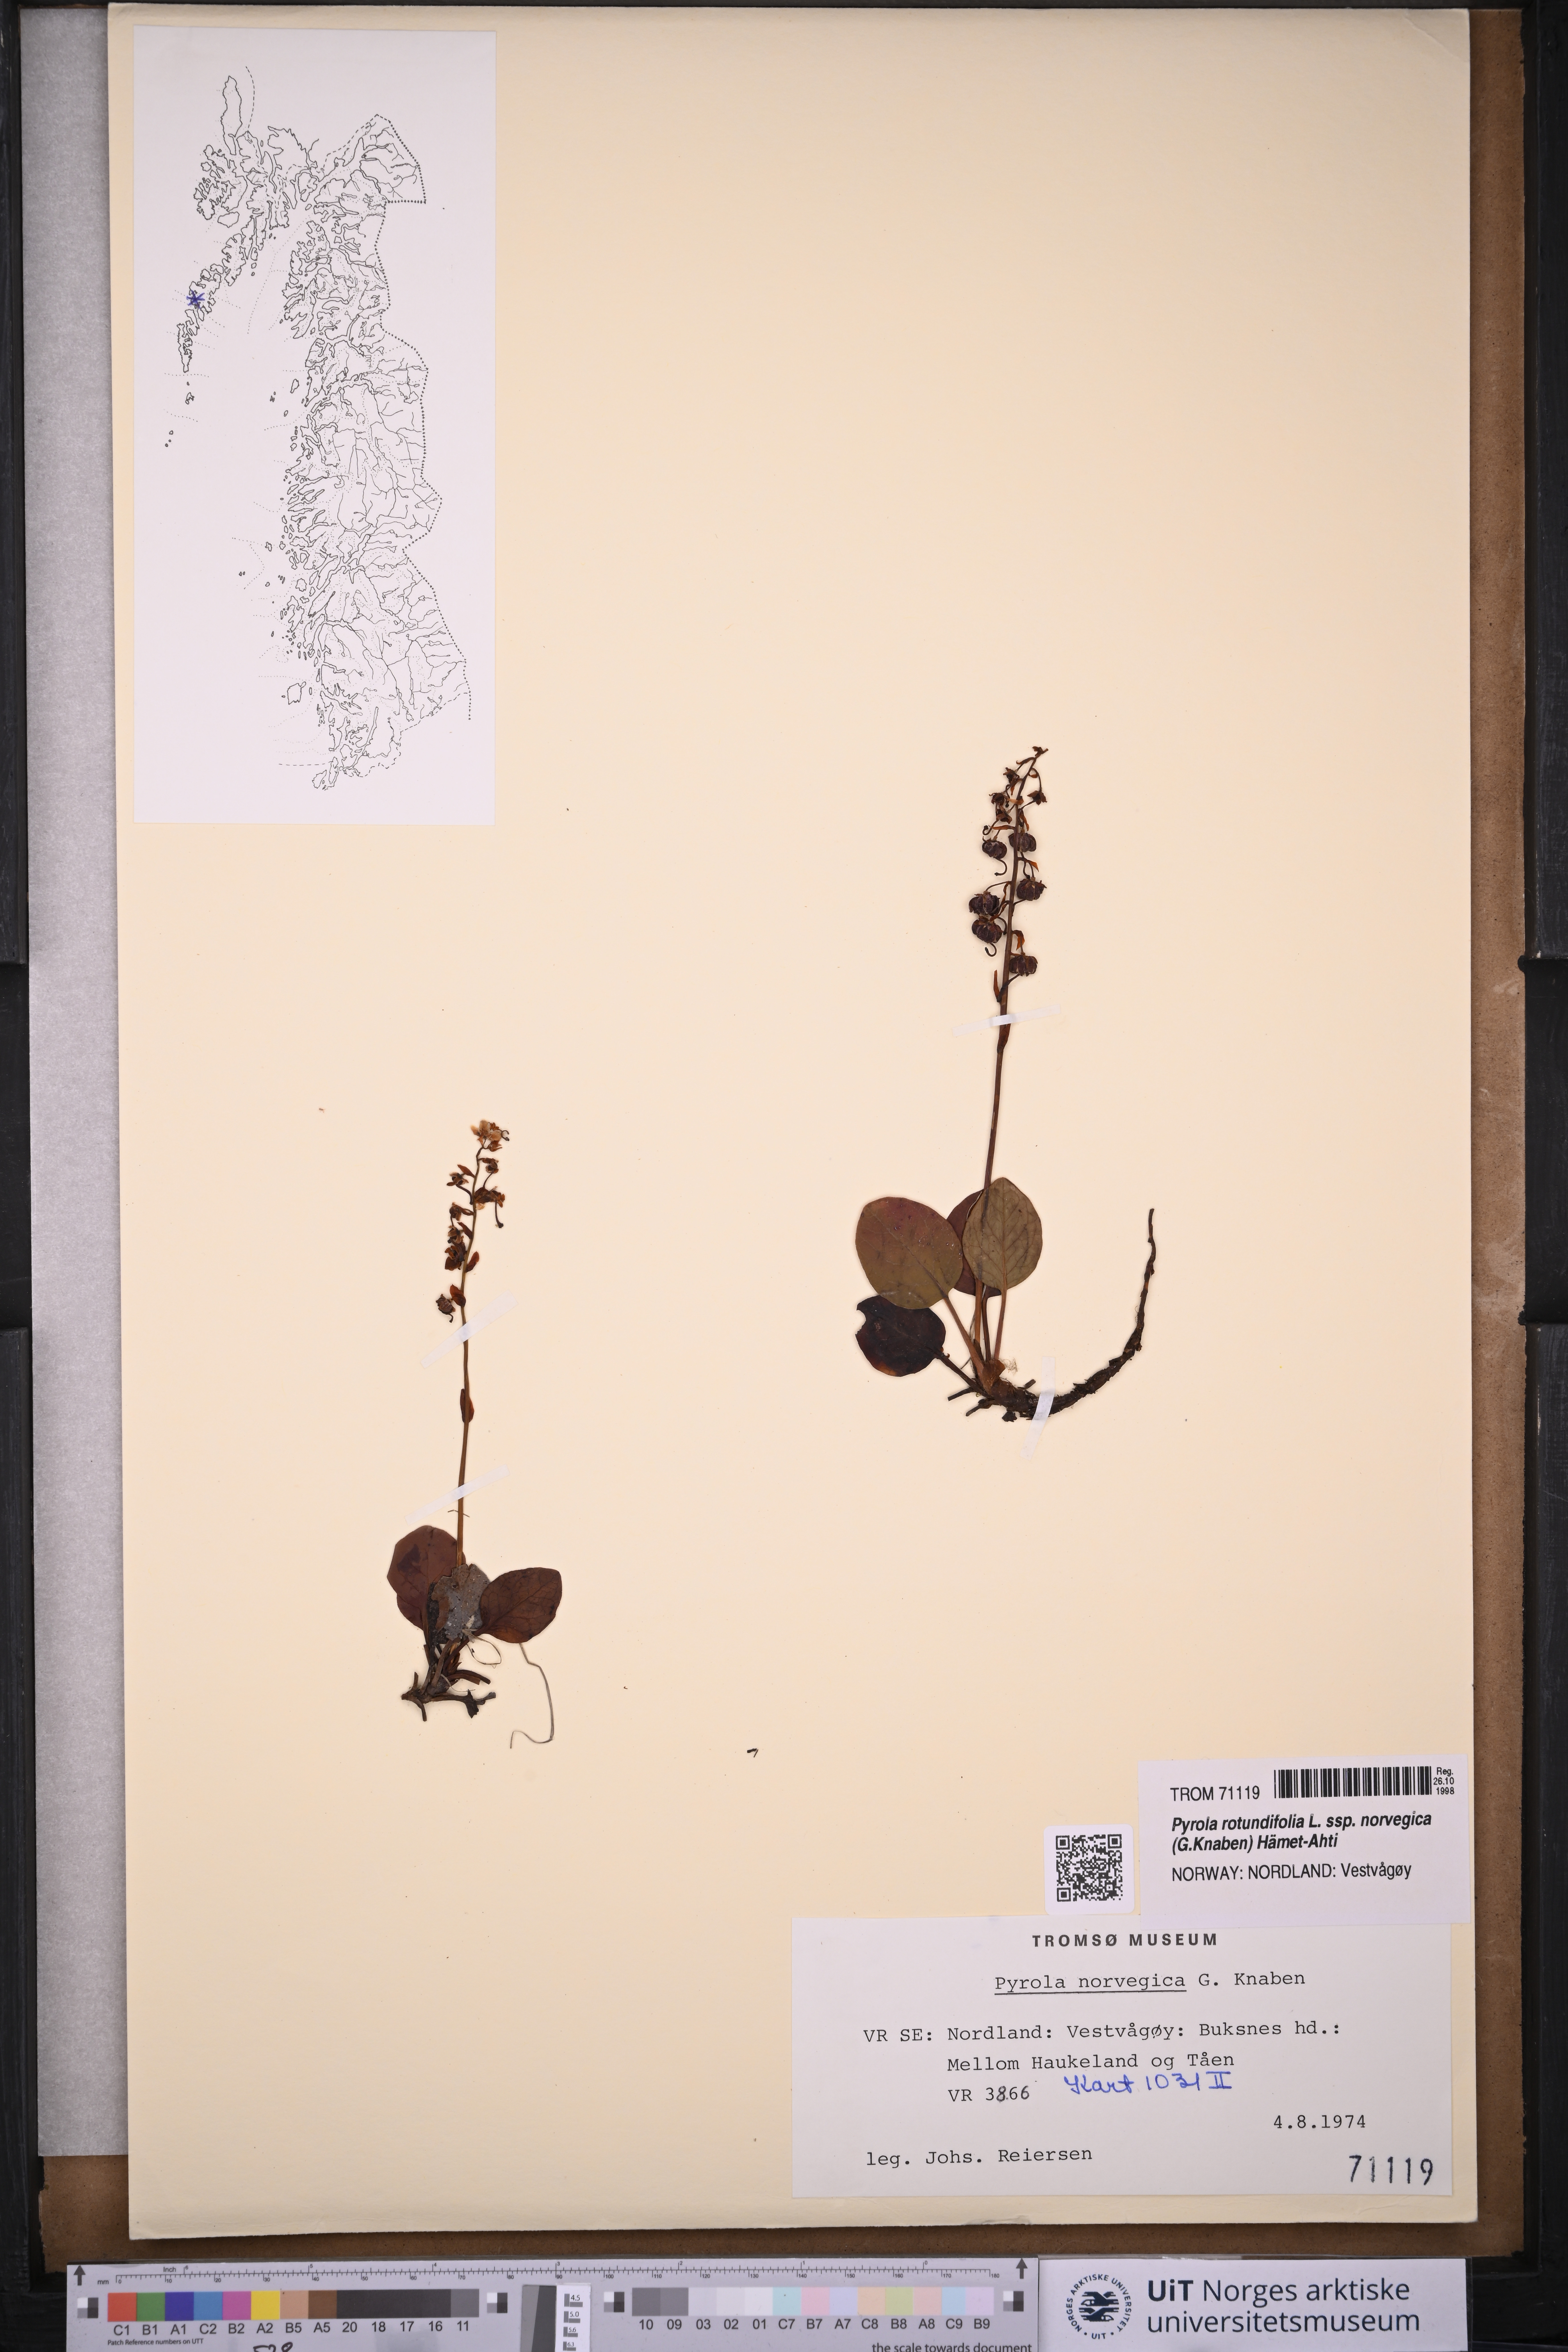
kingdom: Plantae
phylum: Tracheophyta
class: Magnoliopsida
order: Ericales
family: Ericaceae
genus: Pyrola
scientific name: Pyrola rotundifolia
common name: Round-leaved wintergreen
